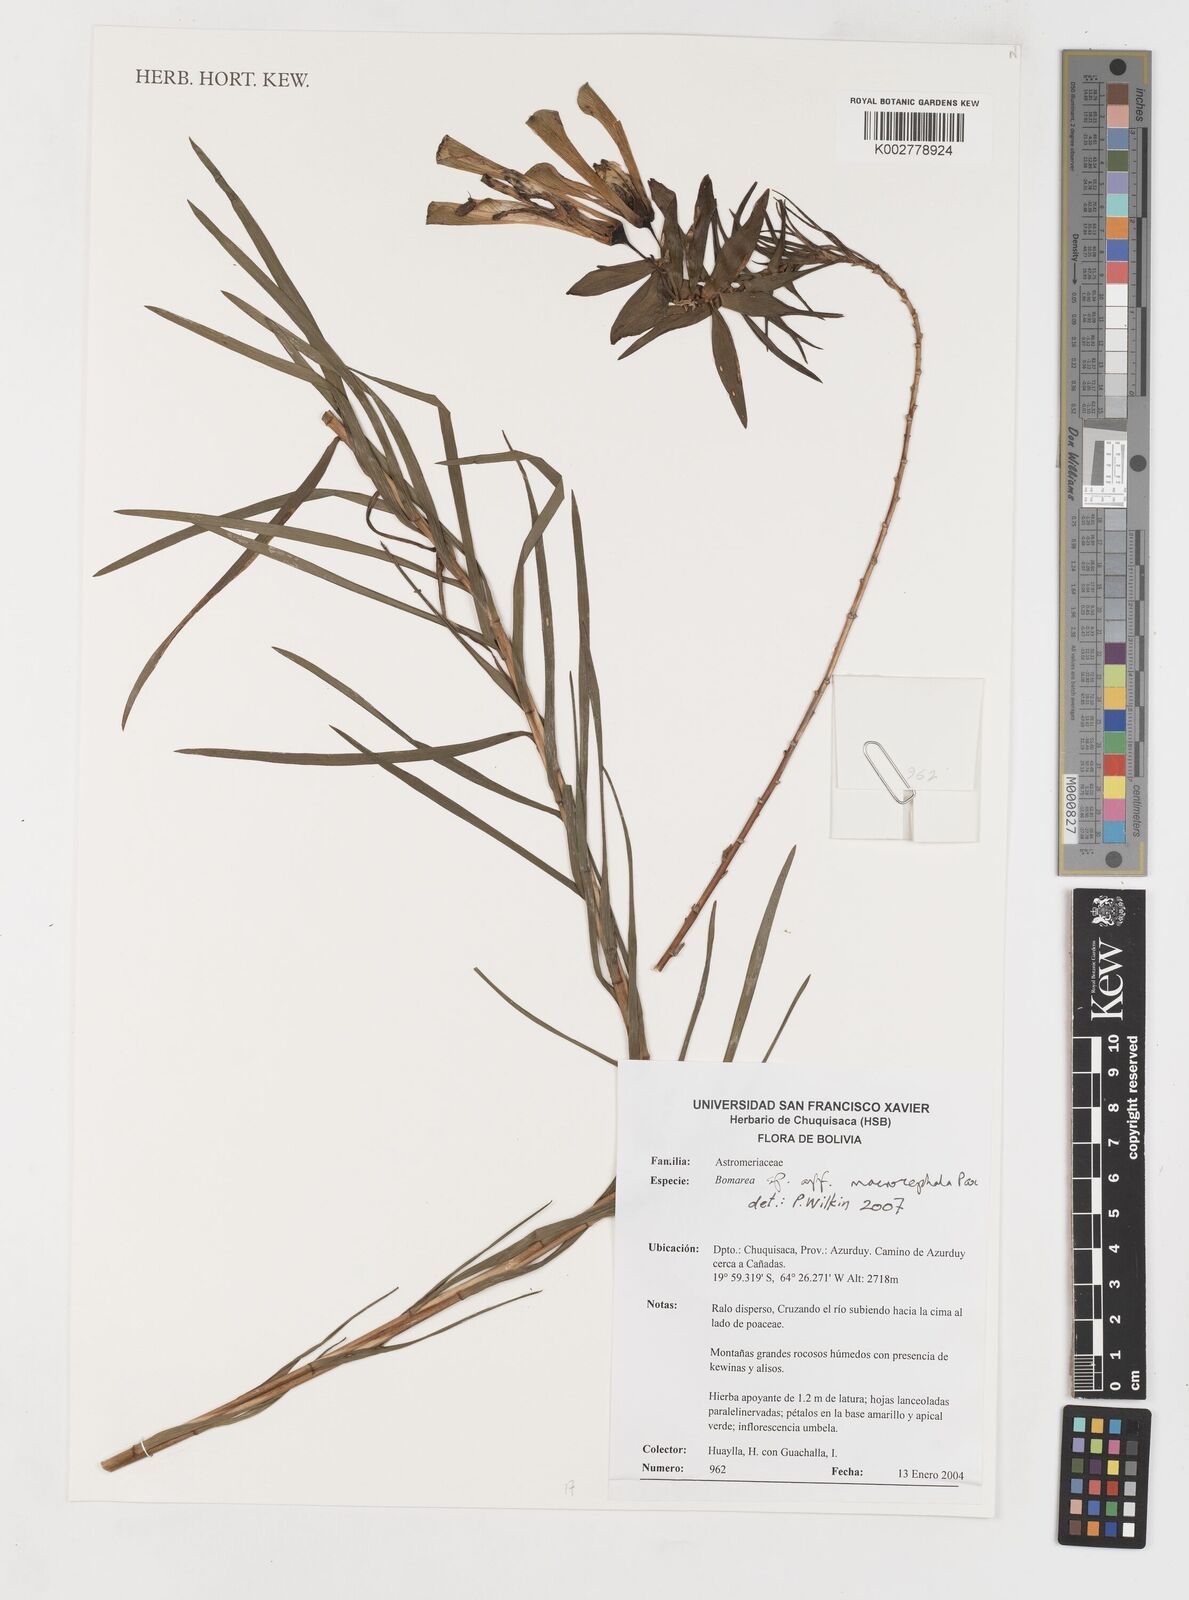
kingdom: Plantae
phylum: Tracheophyta
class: Liliopsida
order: Liliales
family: Alstroemeriaceae
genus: Bomarea
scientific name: Bomarea macrocephala
